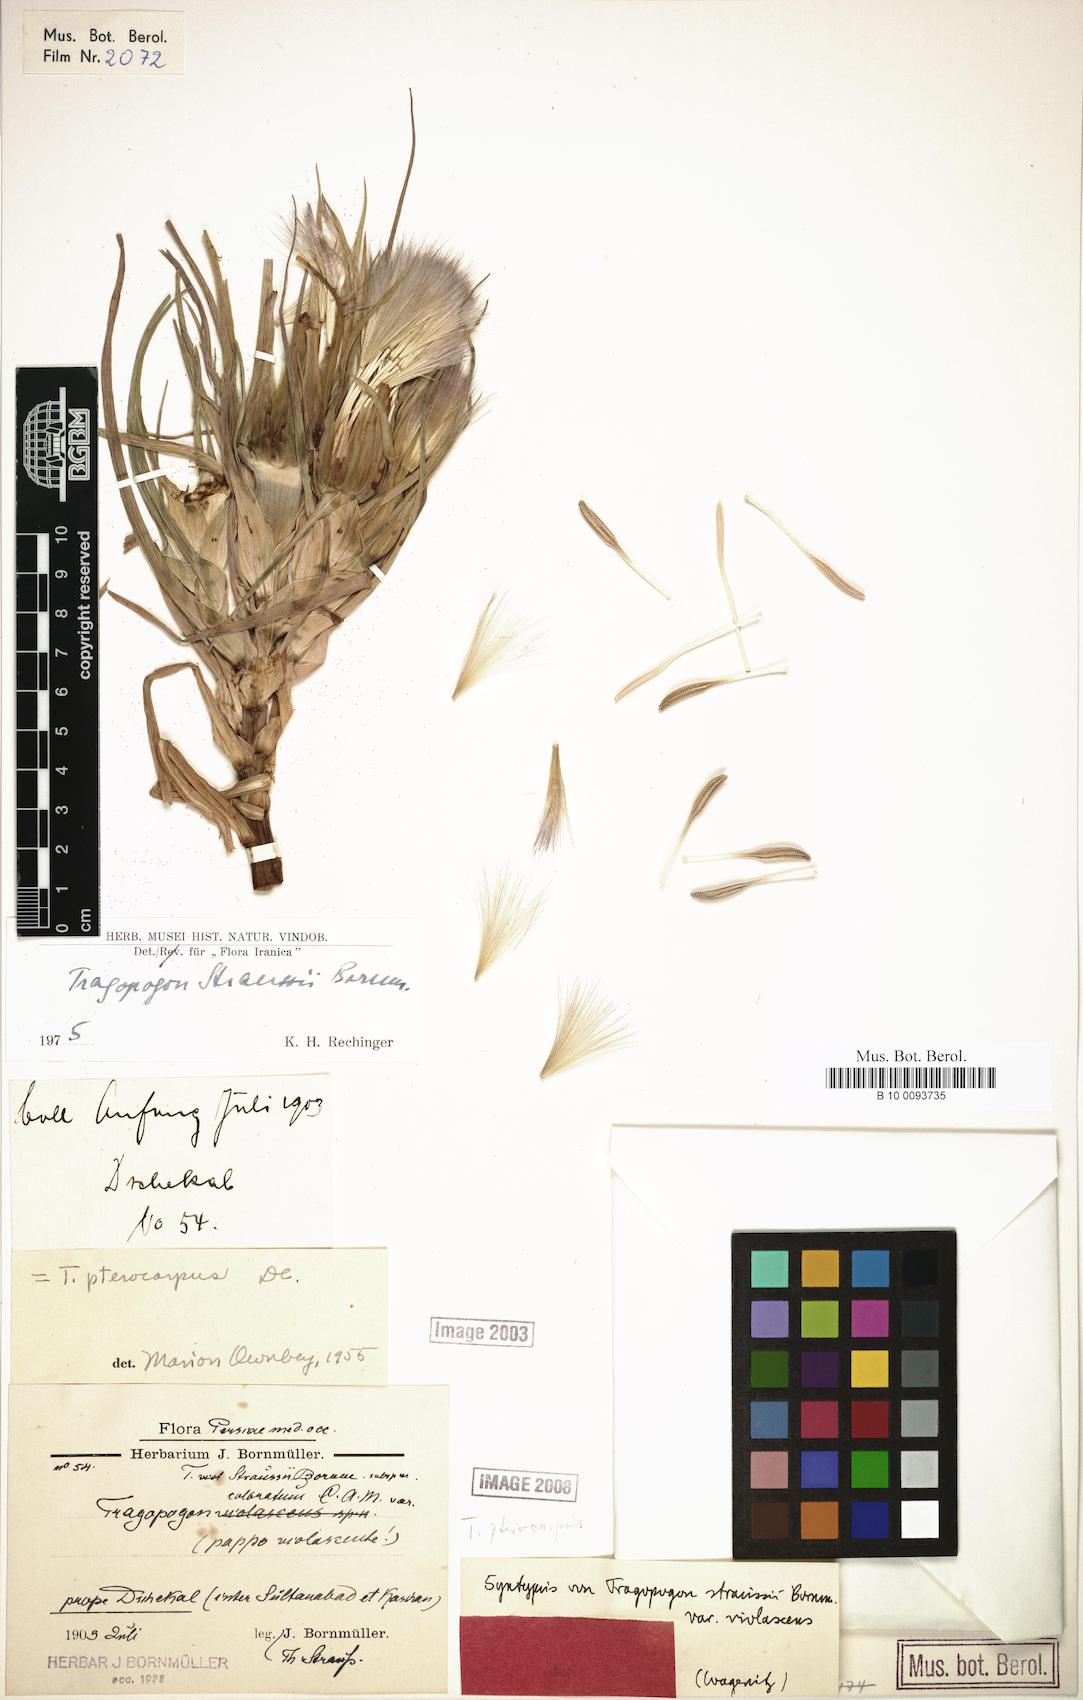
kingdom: Plantae
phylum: Tracheophyta
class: Magnoliopsida
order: Asterales
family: Asteraceae
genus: Tragopogon
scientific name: Tragopogon pterocarpus
